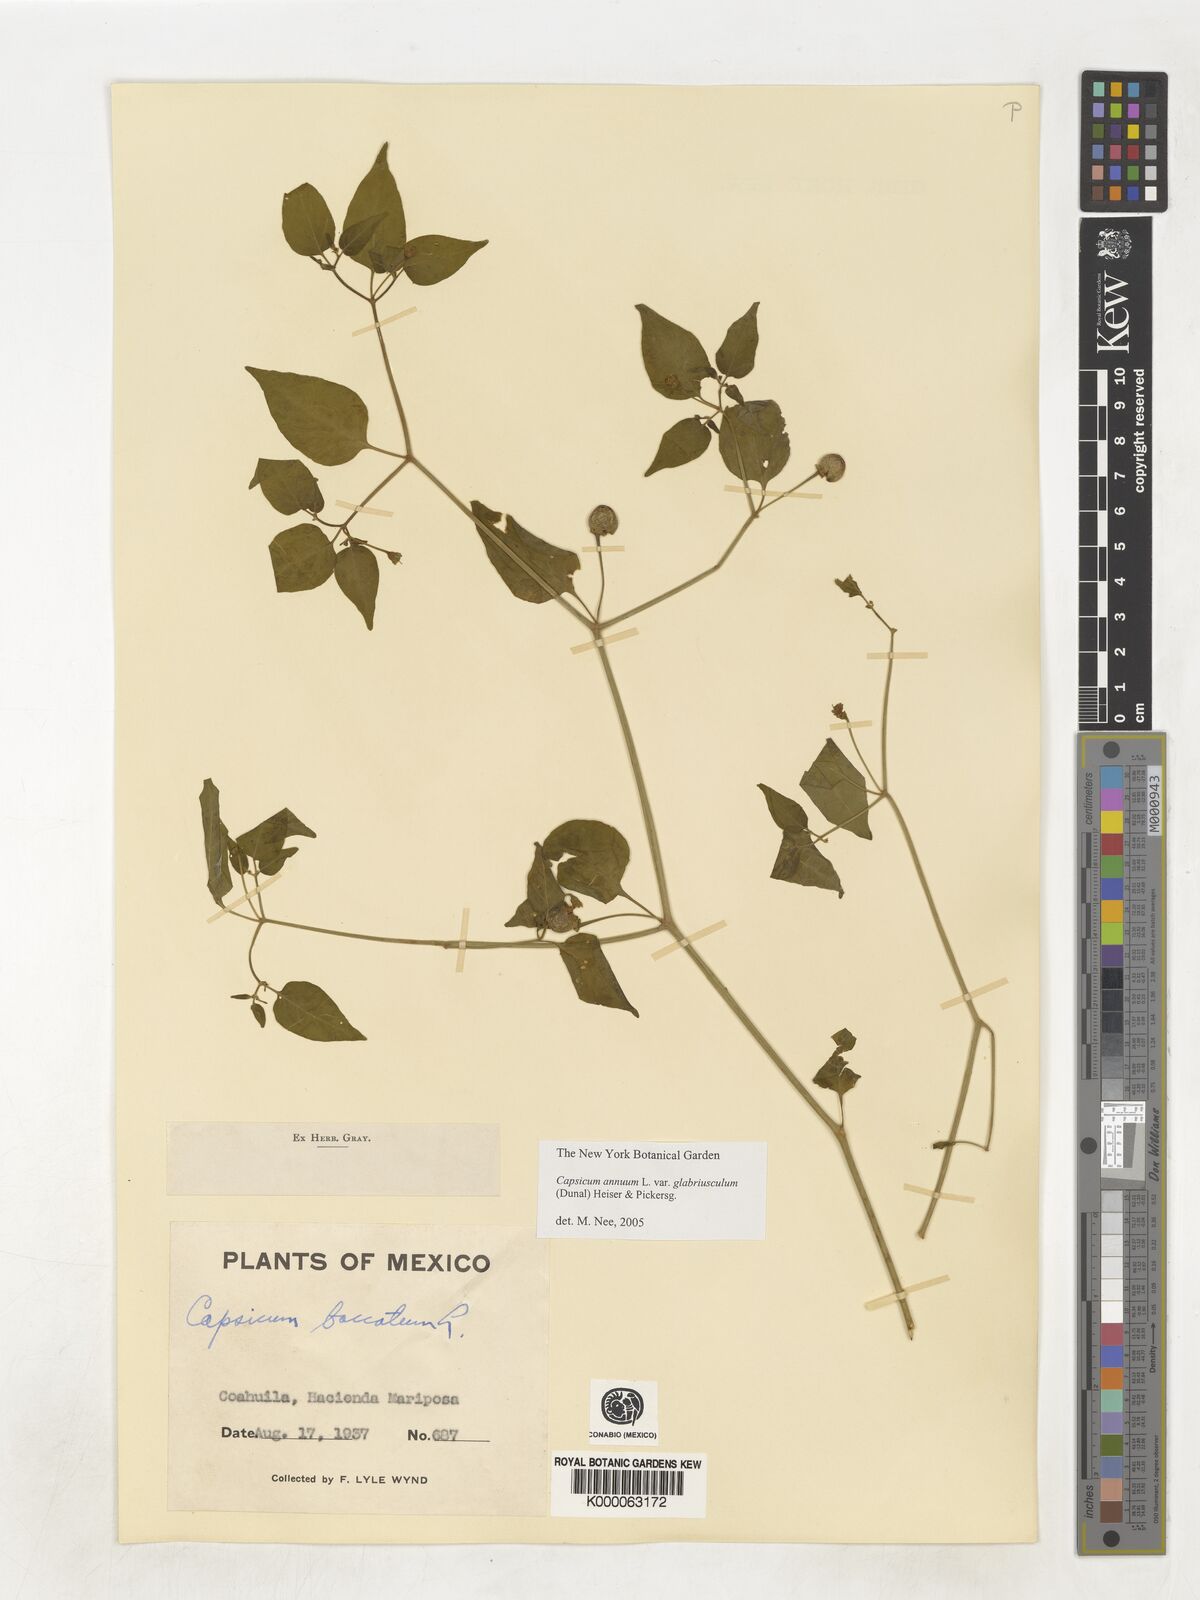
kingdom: Plantae
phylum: Tracheophyta
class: Magnoliopsida
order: Solanales
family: Solanaceae
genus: Capsicum
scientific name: Capsicum baccatum
